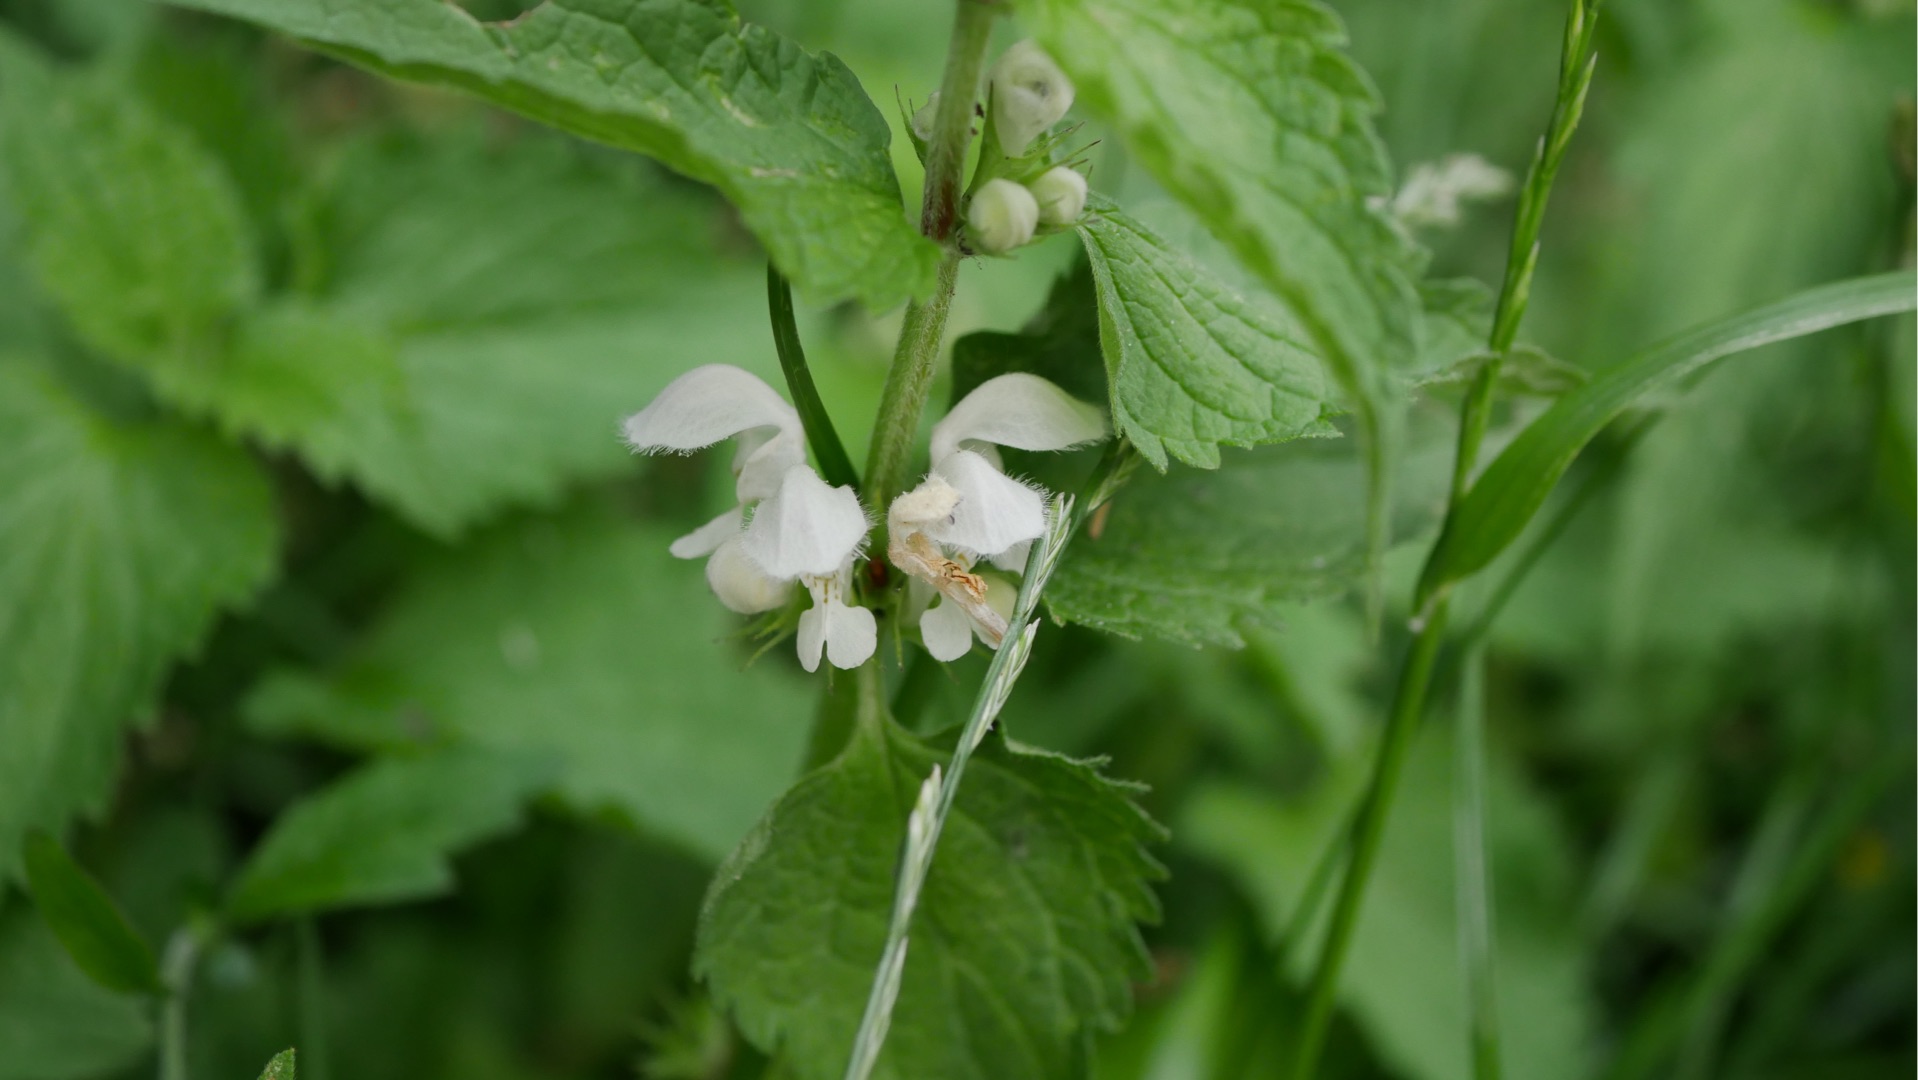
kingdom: Plantae
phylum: Tracheophyta
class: Magnoliopsida
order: Lamiales
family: Lamiaceae
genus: Lamium
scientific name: Lamium album
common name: Døvnælde
